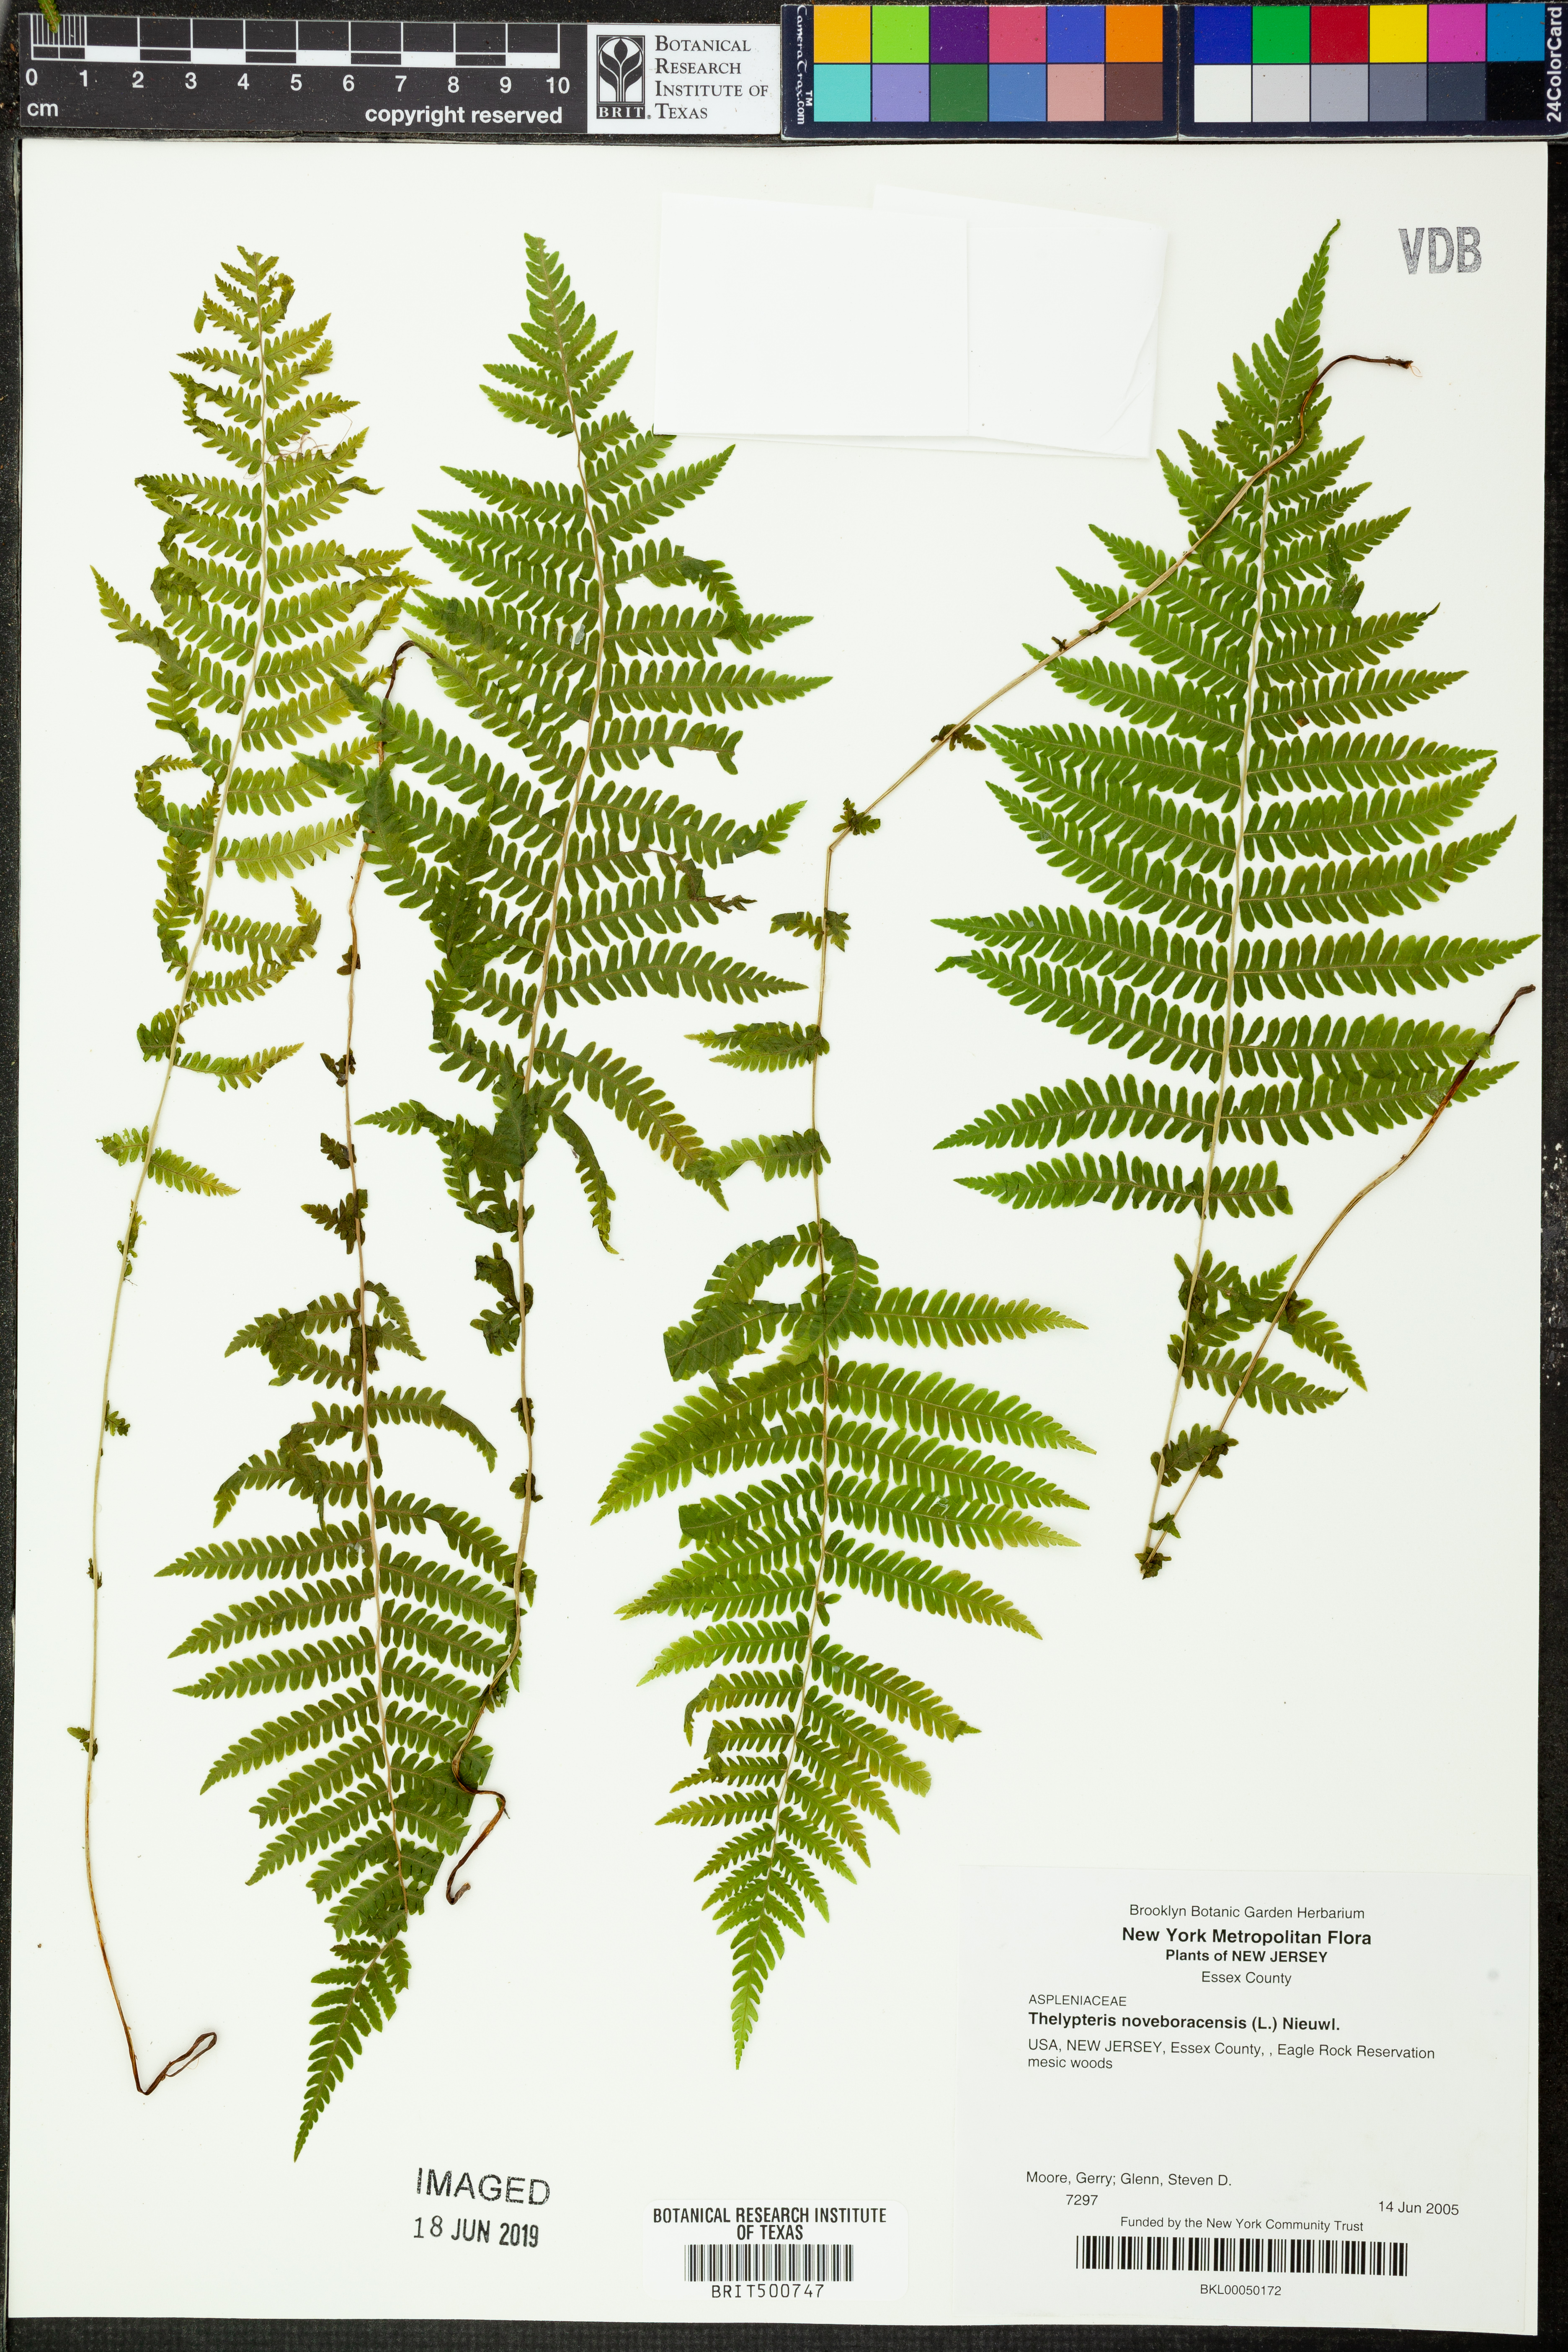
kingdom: Plantae
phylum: Tracheophyta
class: Polypodiopsida
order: Polypodiales
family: Thelypteridaceae
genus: Amauropelta
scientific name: Amauropelta noveboracensis
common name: New york fern
